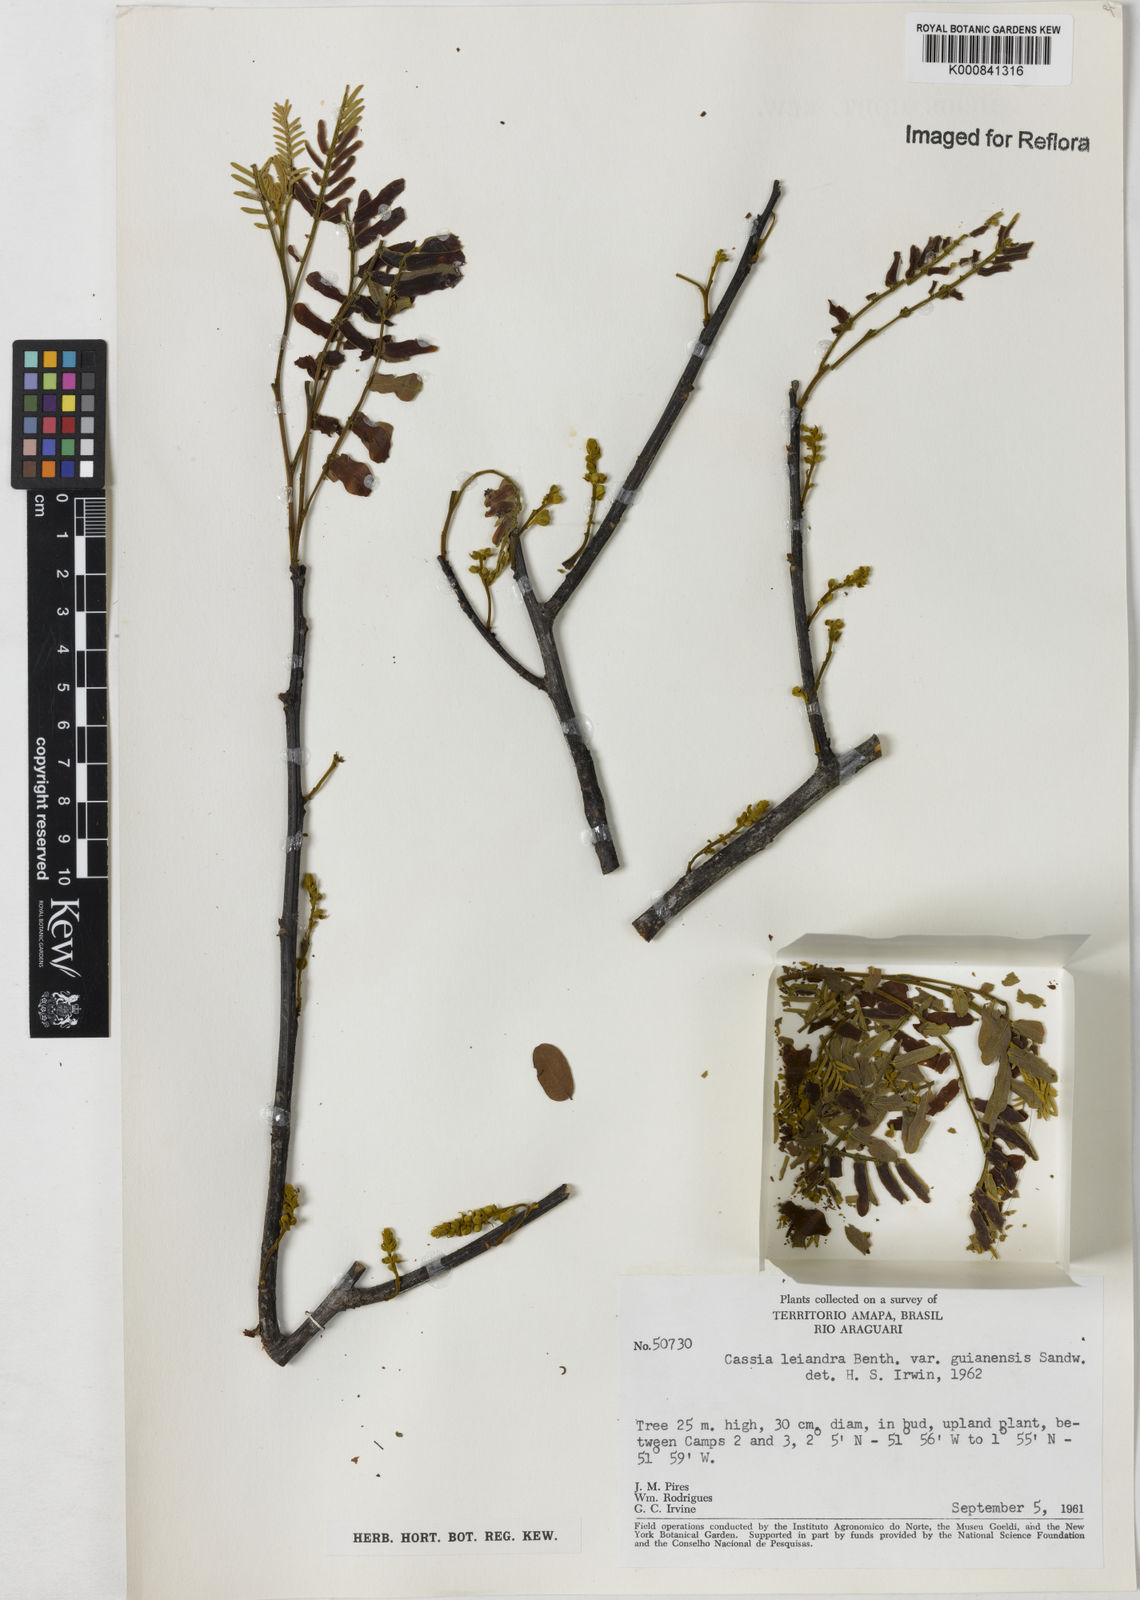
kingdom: Plantae
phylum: Tracheophyta
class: Magnoliopsida
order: Fabales
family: Fabaceae
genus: Cassia
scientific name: Cassia cowanii
